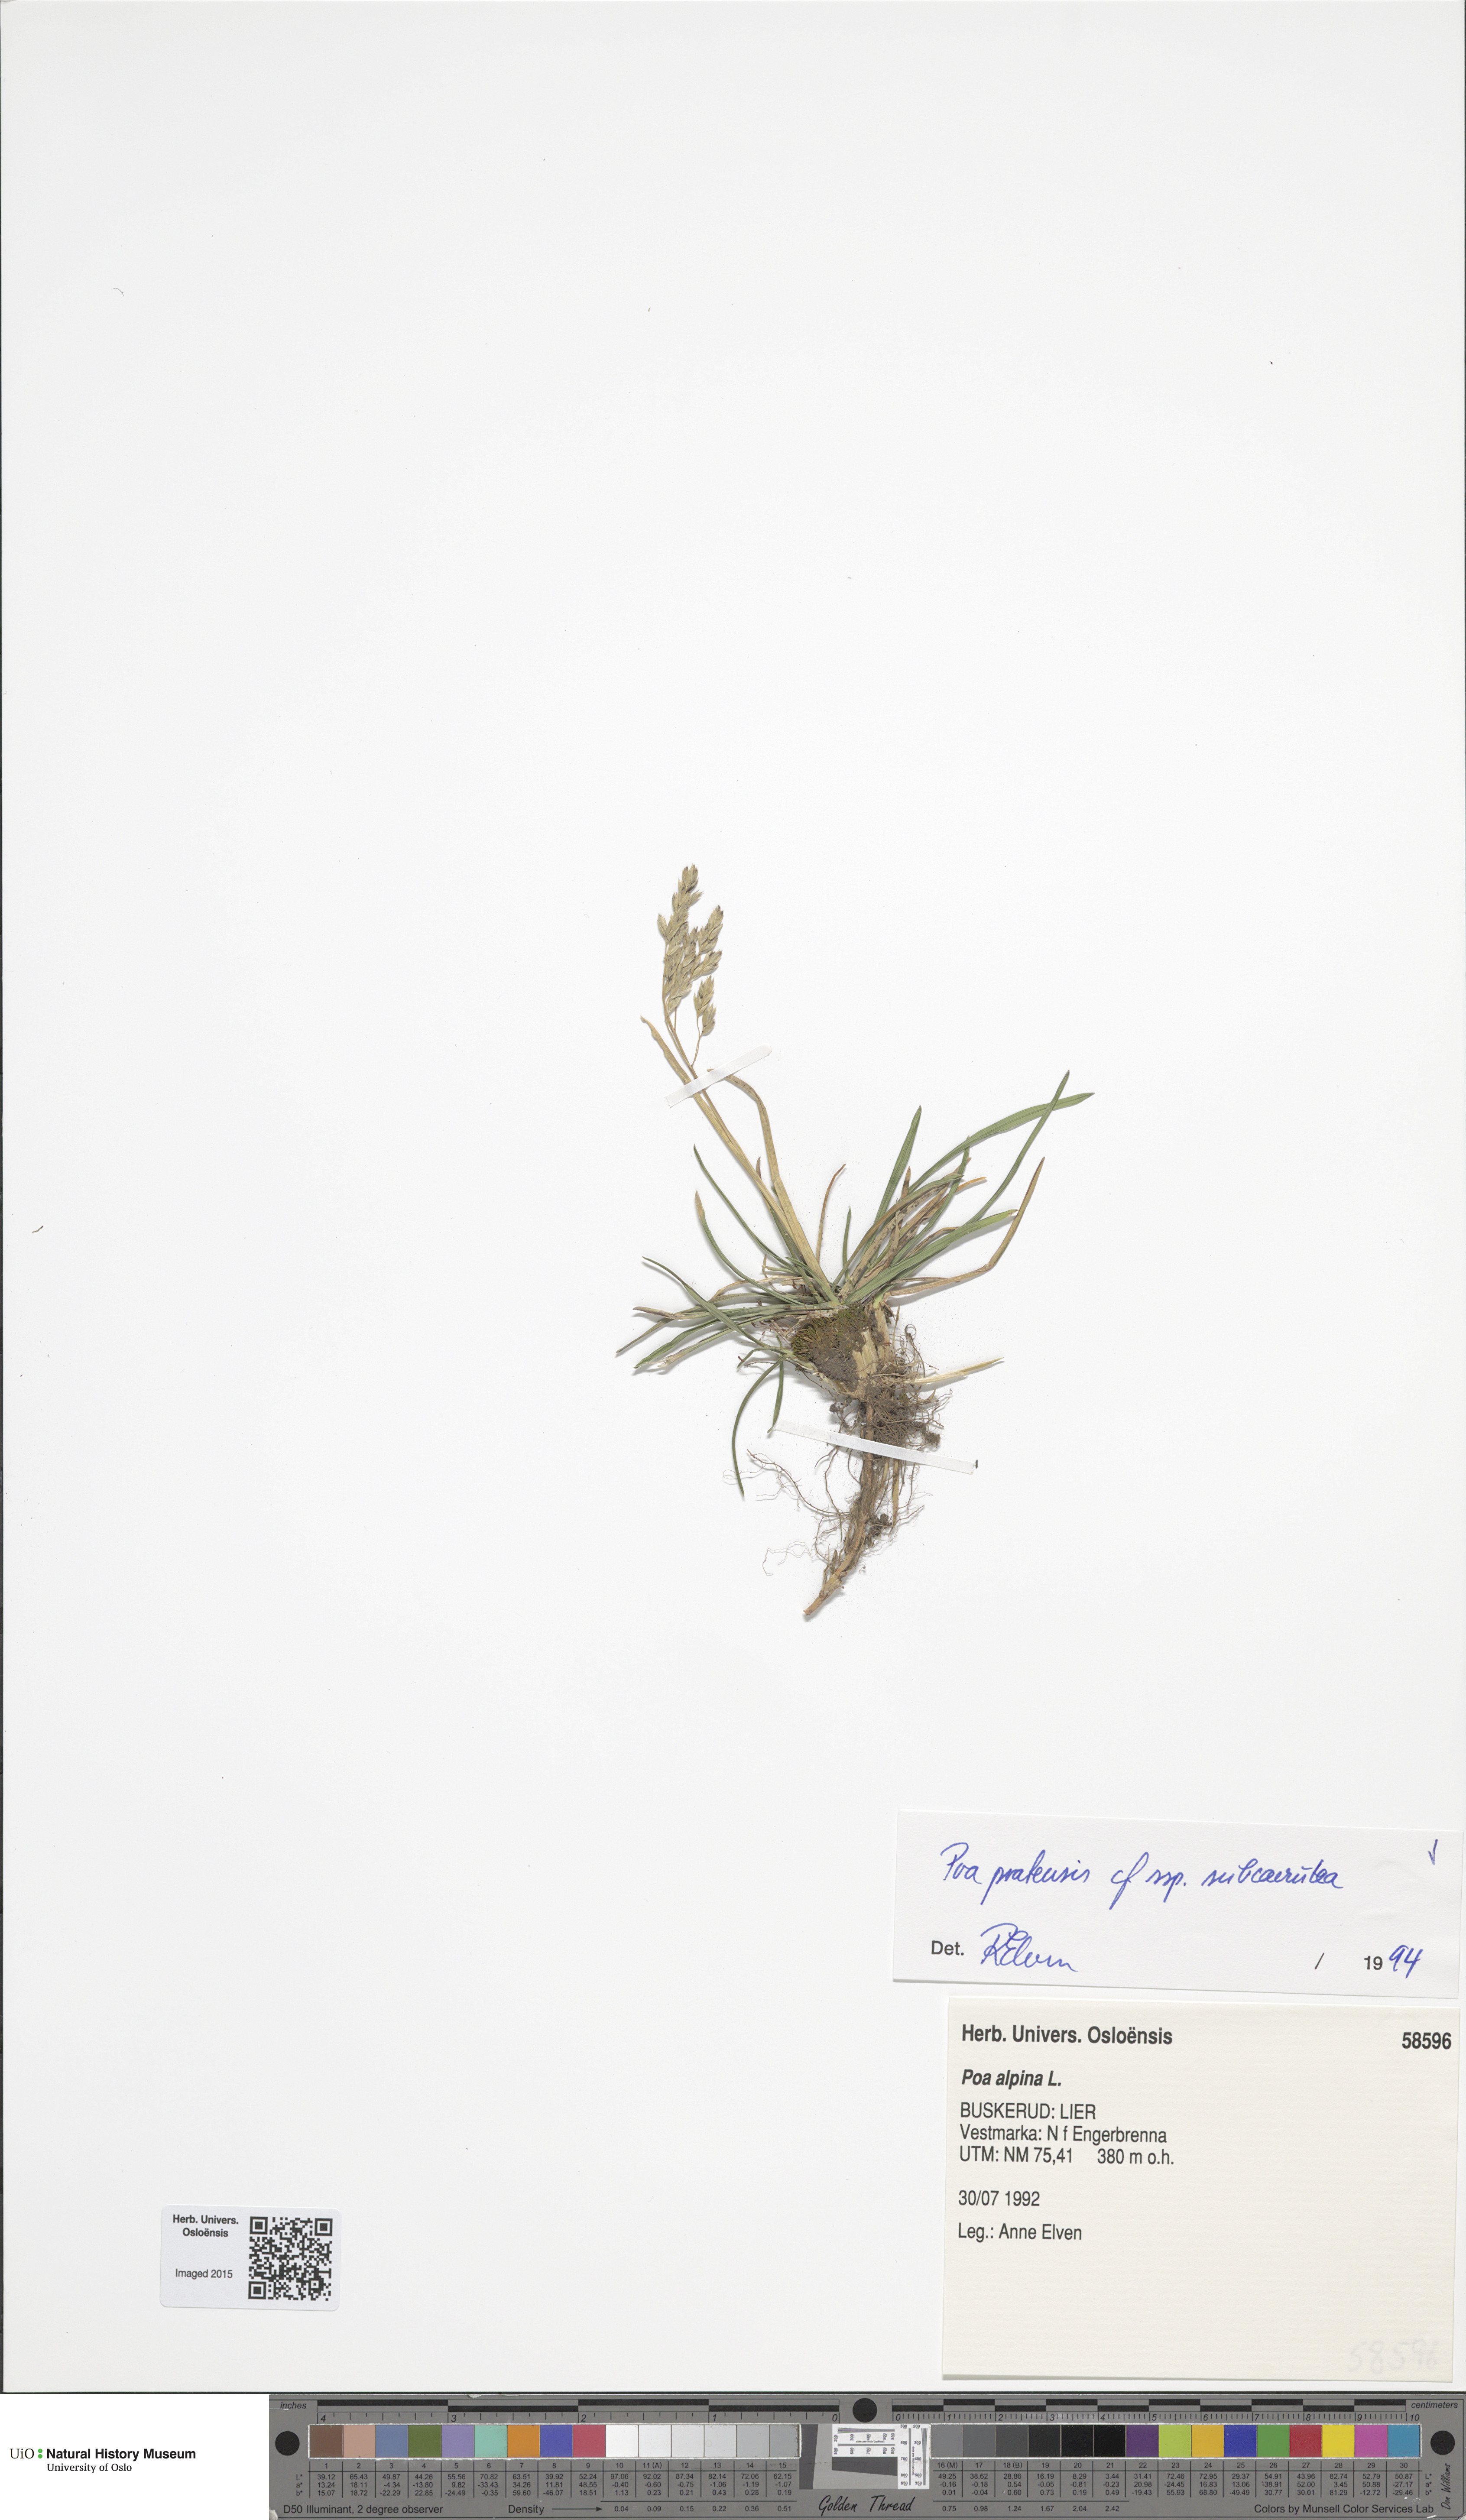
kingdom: Plantae
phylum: Tracheophyta
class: Liliopsida
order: Poales
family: Poaceae
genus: Poa
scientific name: Poa humilis
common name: Spreading meadow-grass
